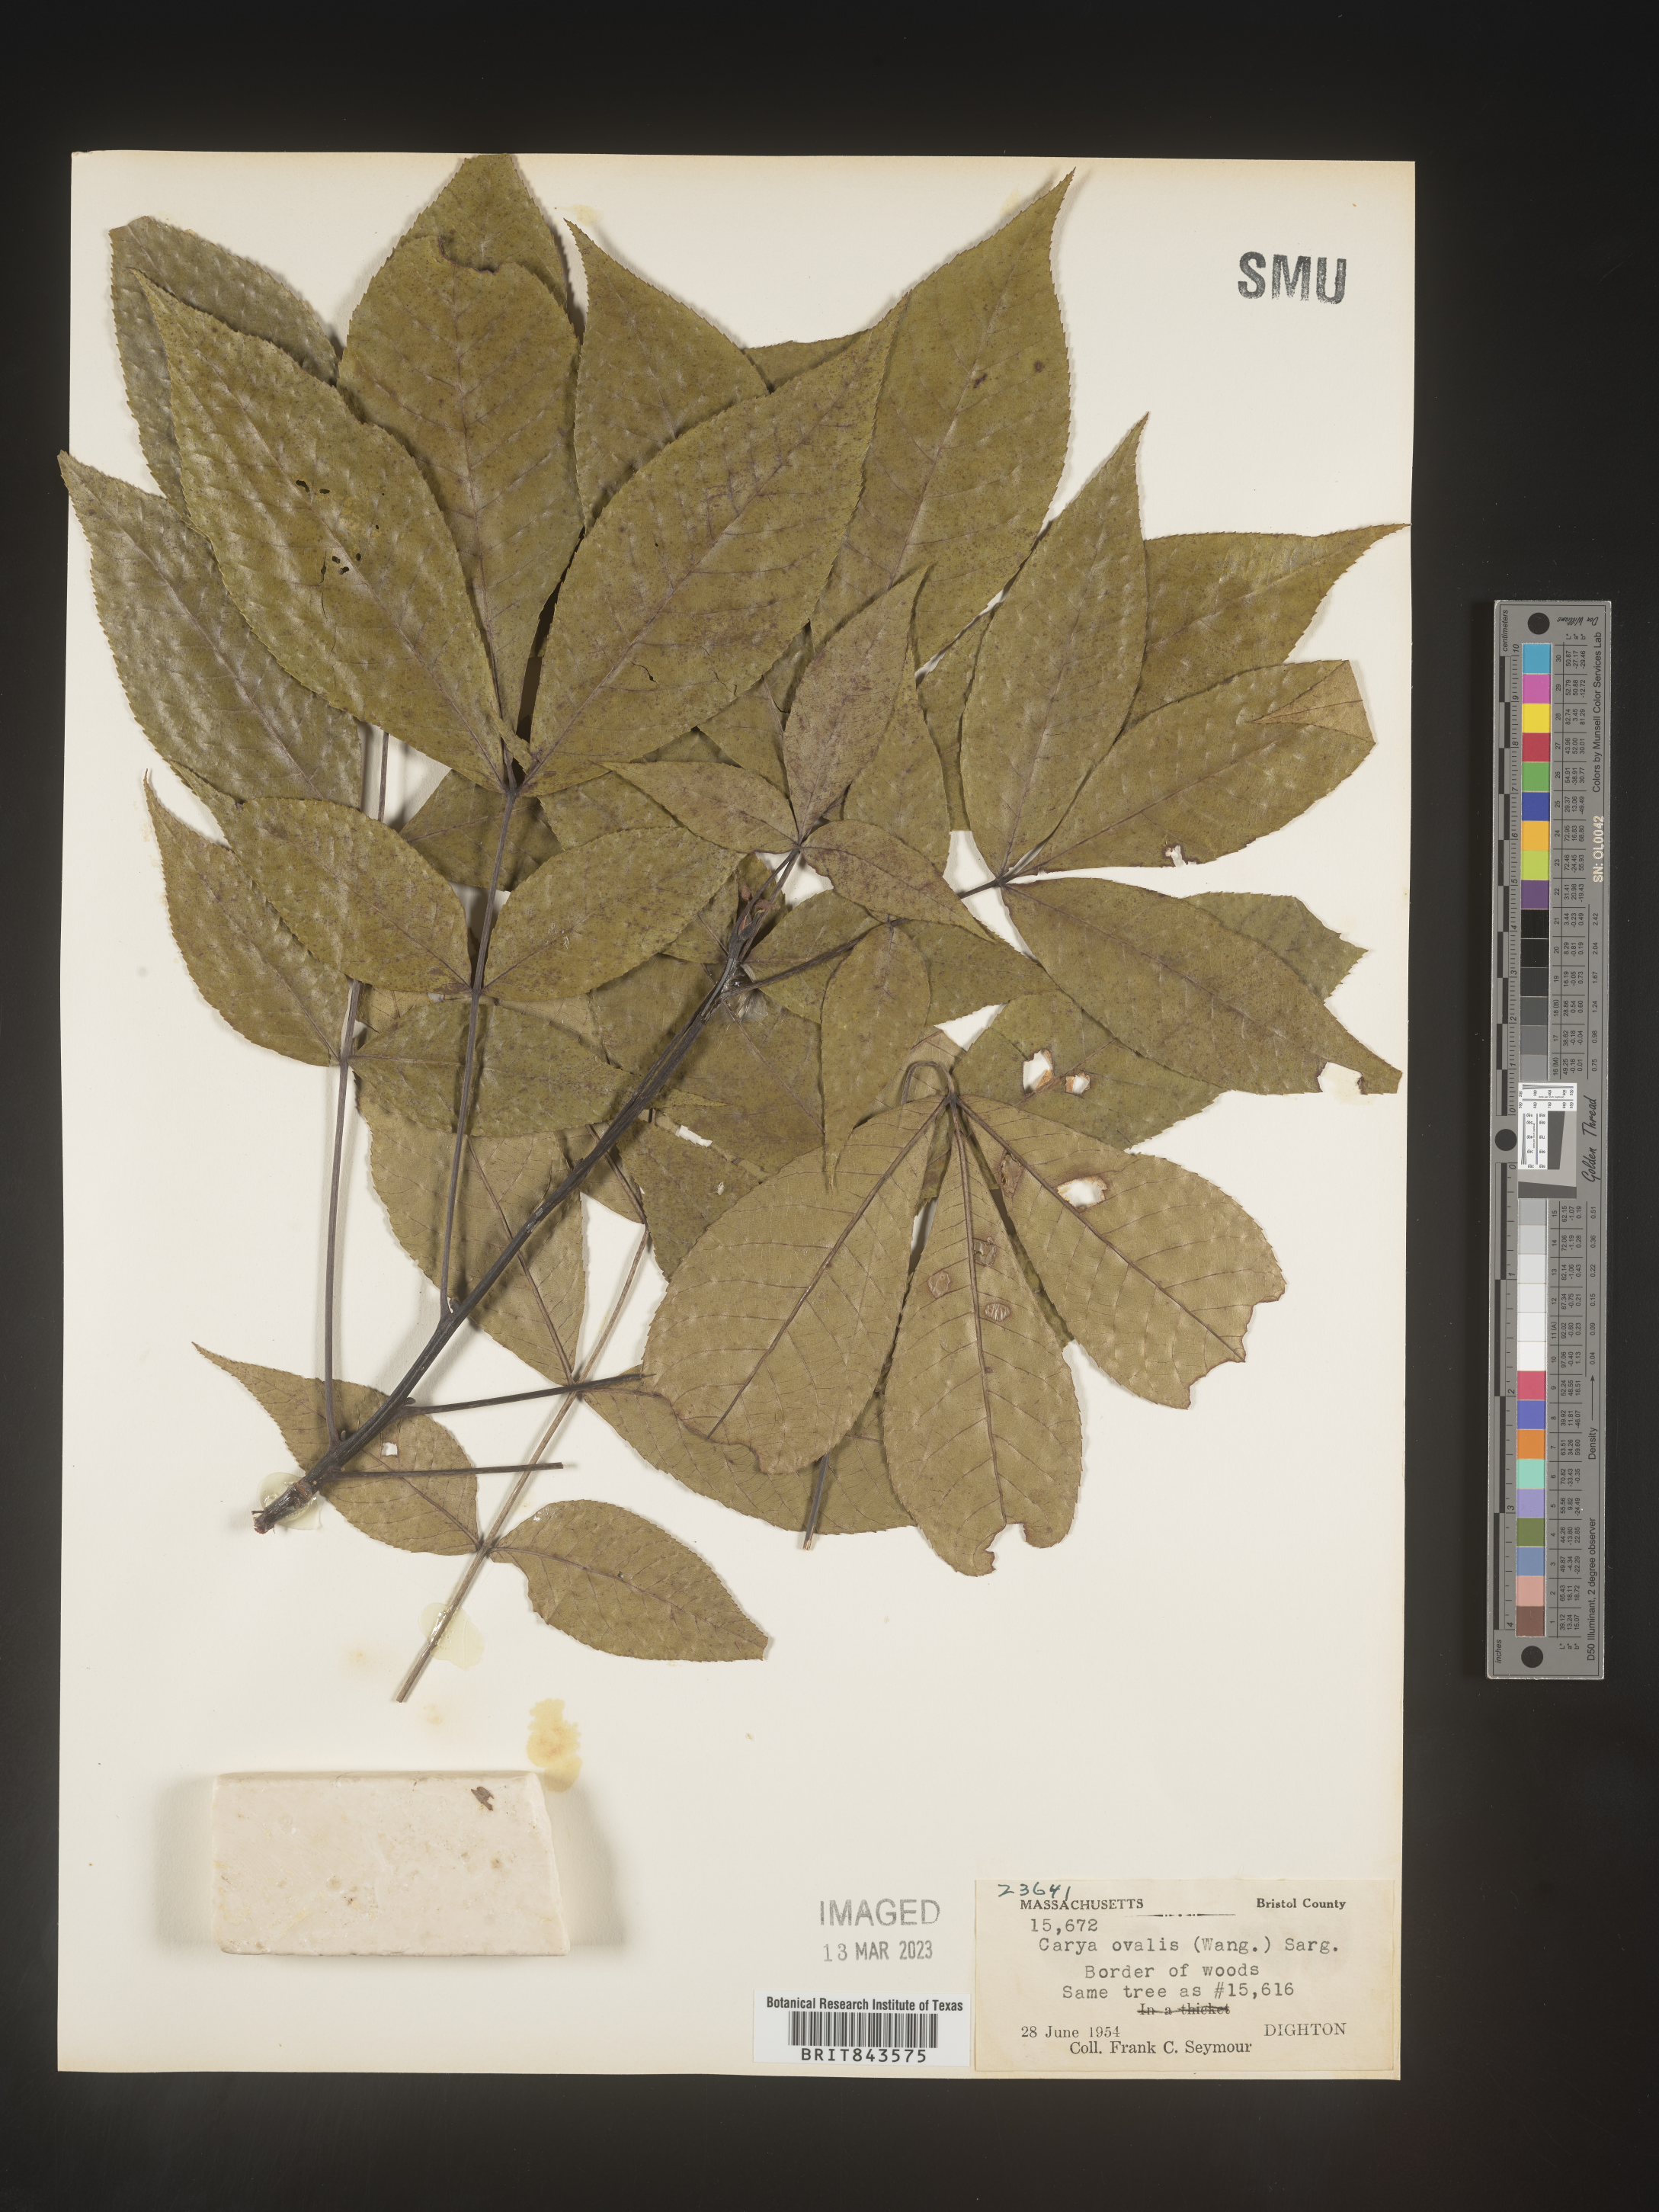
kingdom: Plantae
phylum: Tracheophyta
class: Magnoliopsida
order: Fagales
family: Juglandaceae
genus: Carya
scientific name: Carya ovalis
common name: False shagbark
